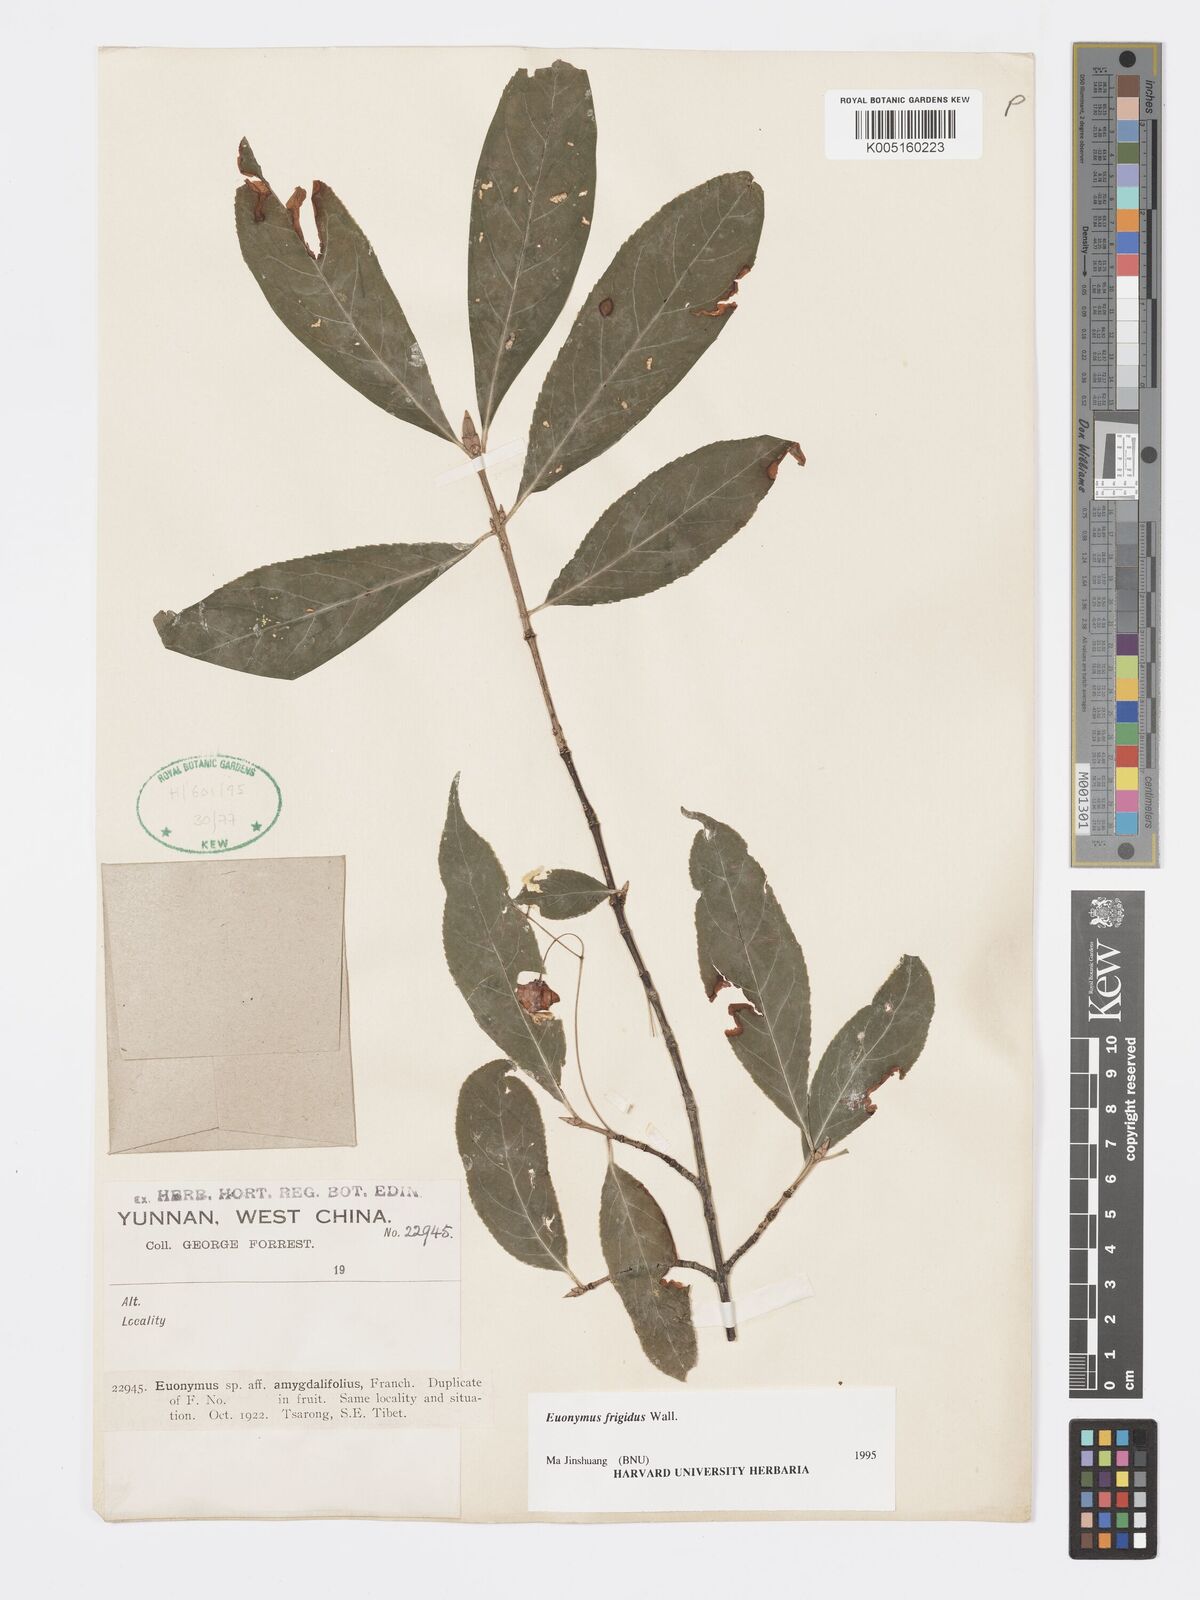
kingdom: Plantae
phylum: Tracheophyta
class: Magnoliopsida
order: Celastrales
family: Celastraceae
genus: Euonymus
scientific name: Euonymus frigidus
